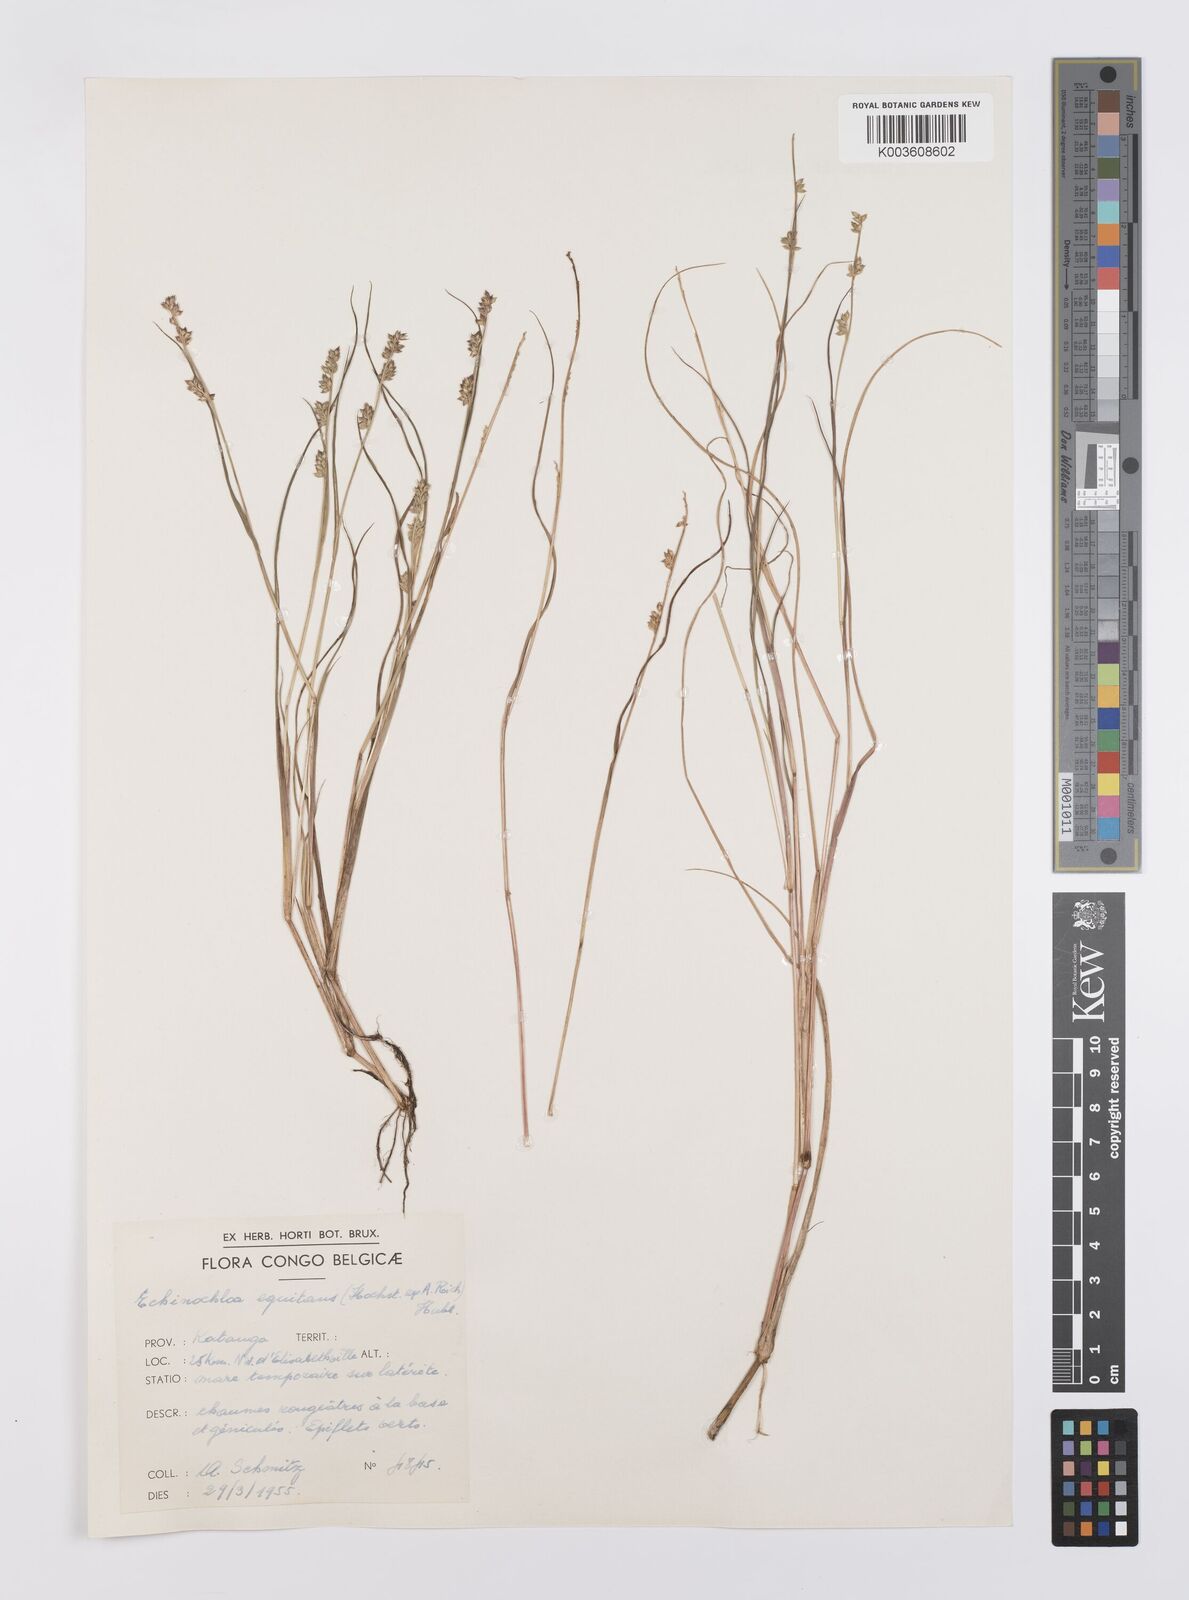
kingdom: Plantae
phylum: Tracheophyta
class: Liliopsida
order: Poales
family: Poaceae
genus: Echinochloa
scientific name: Echinochloa colonum
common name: Jungle rice
